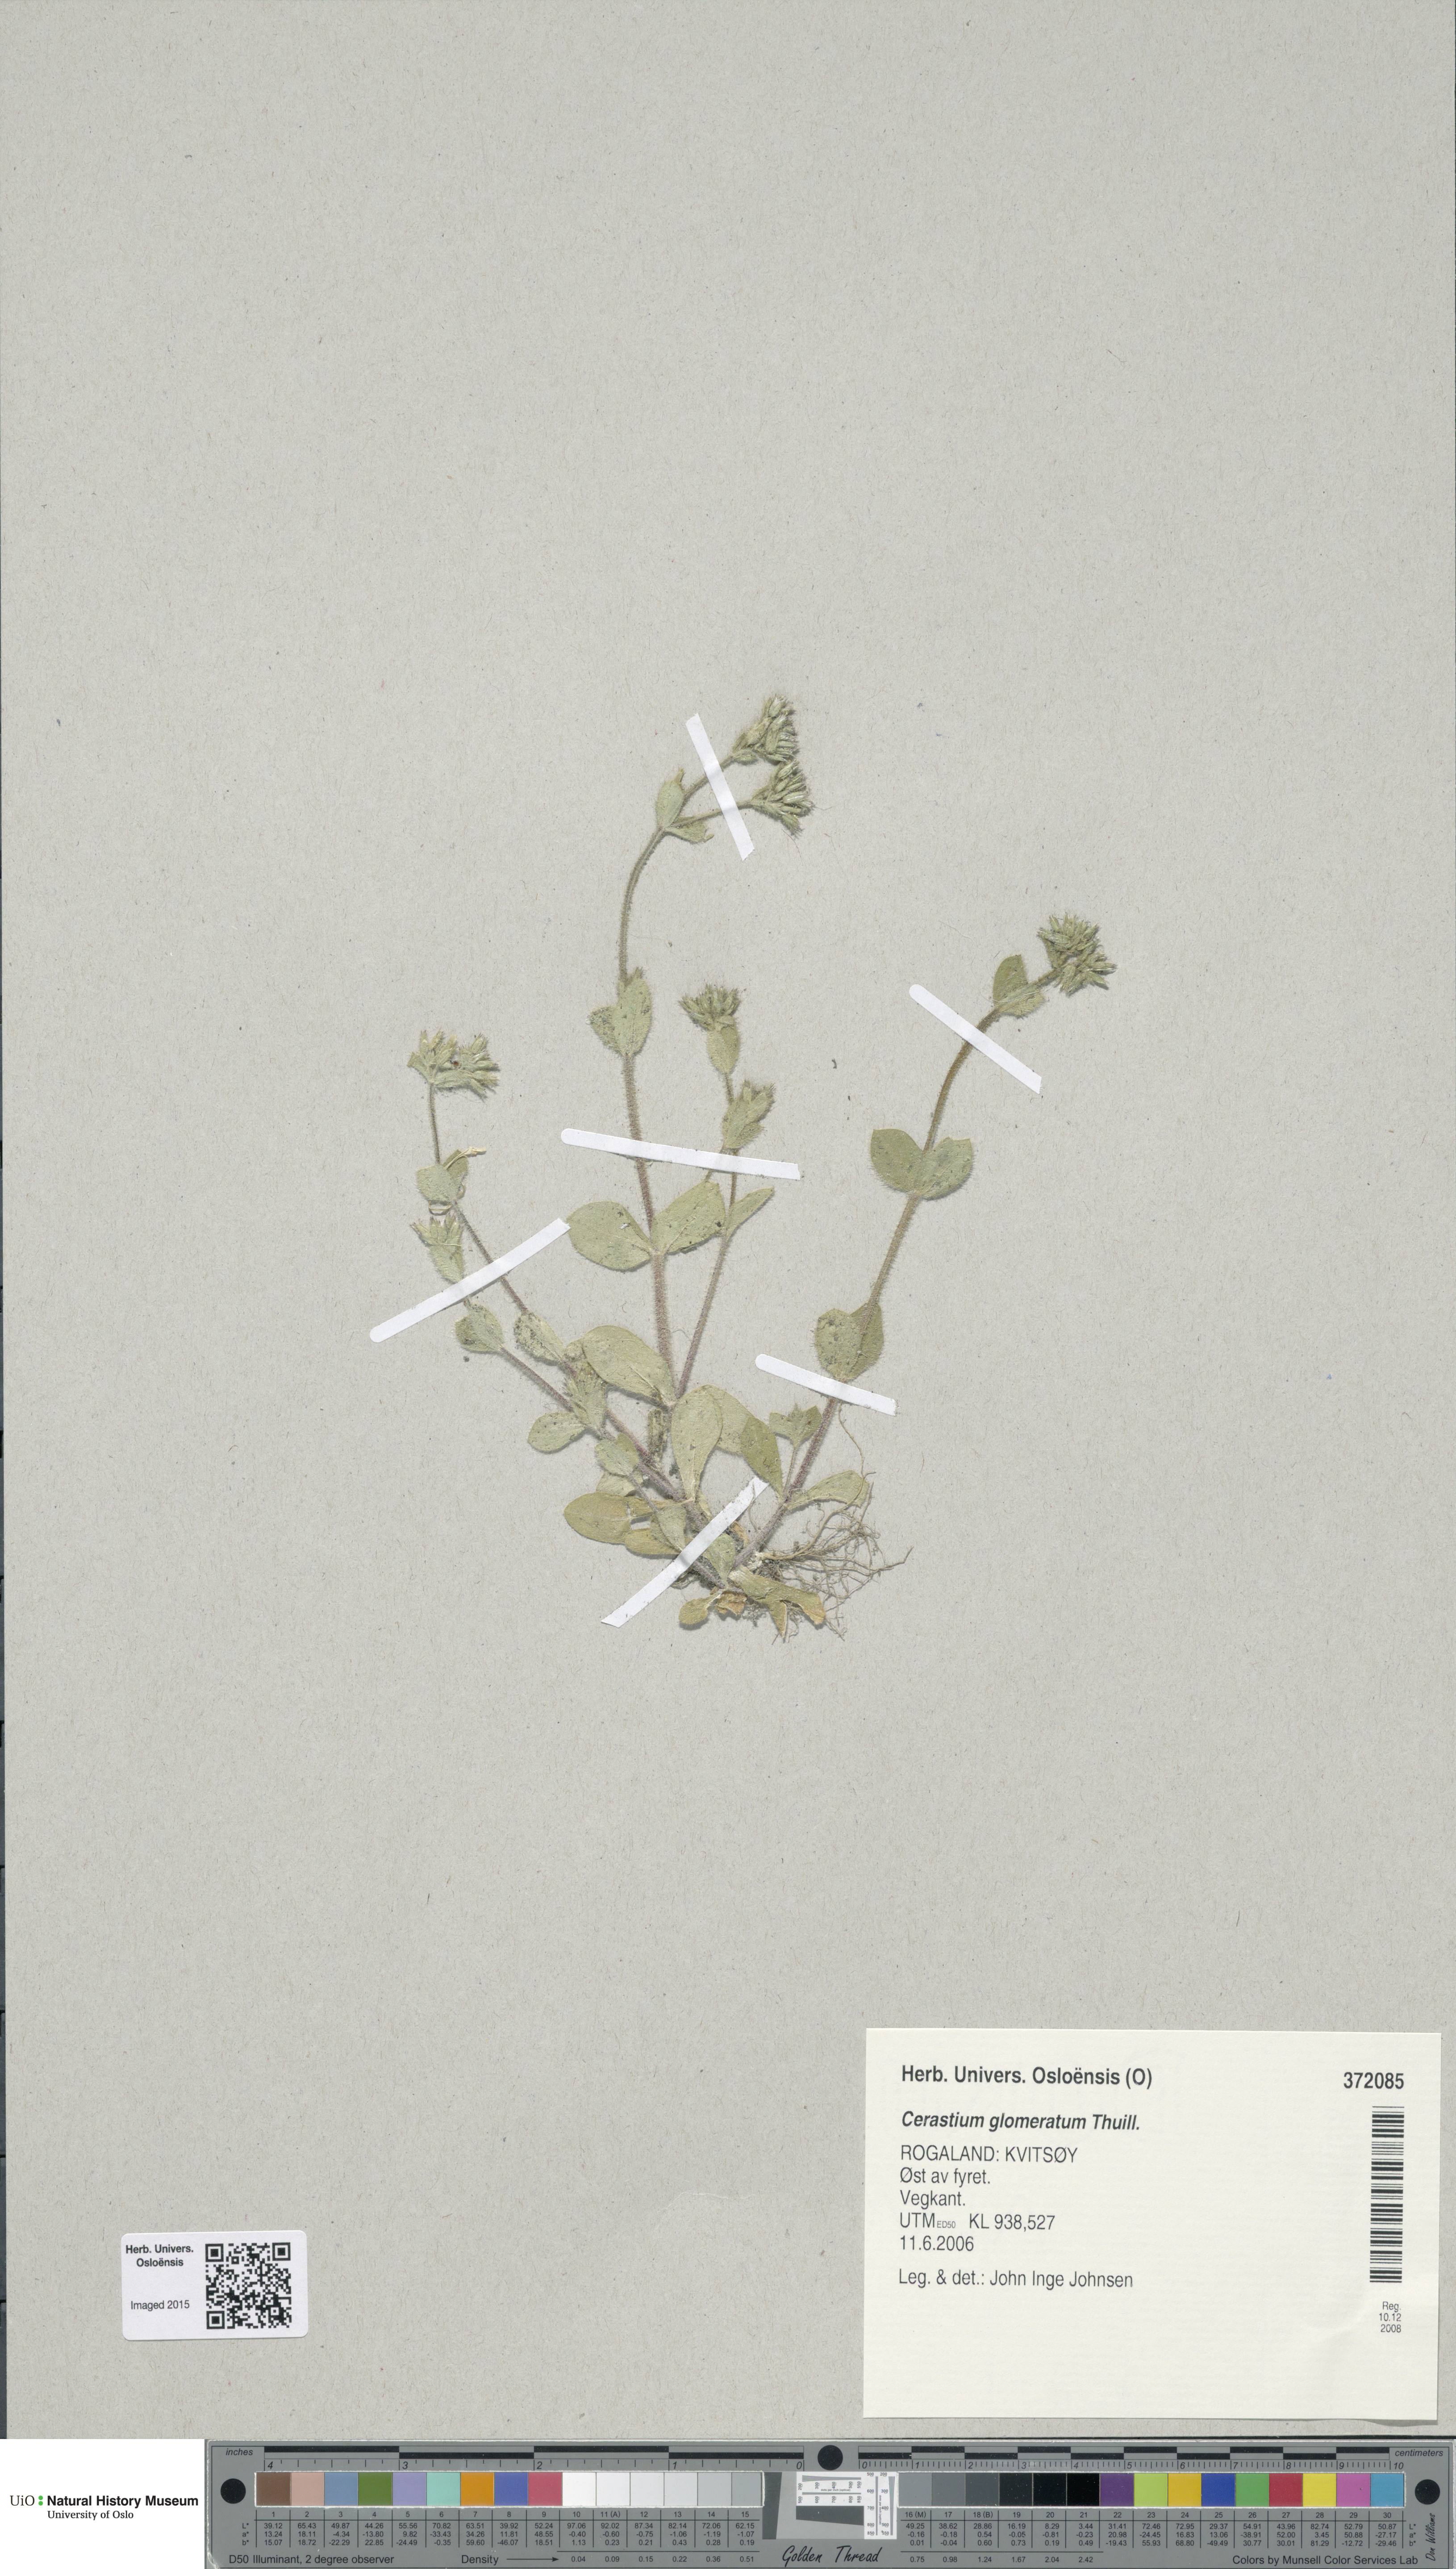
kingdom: Plantae
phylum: Tracheophyta
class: Magnoliopsida
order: Caryophyllales
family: Caryophyllaceae
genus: Cerastium
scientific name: Cerastium glomeratum
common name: Sticky chickweed
